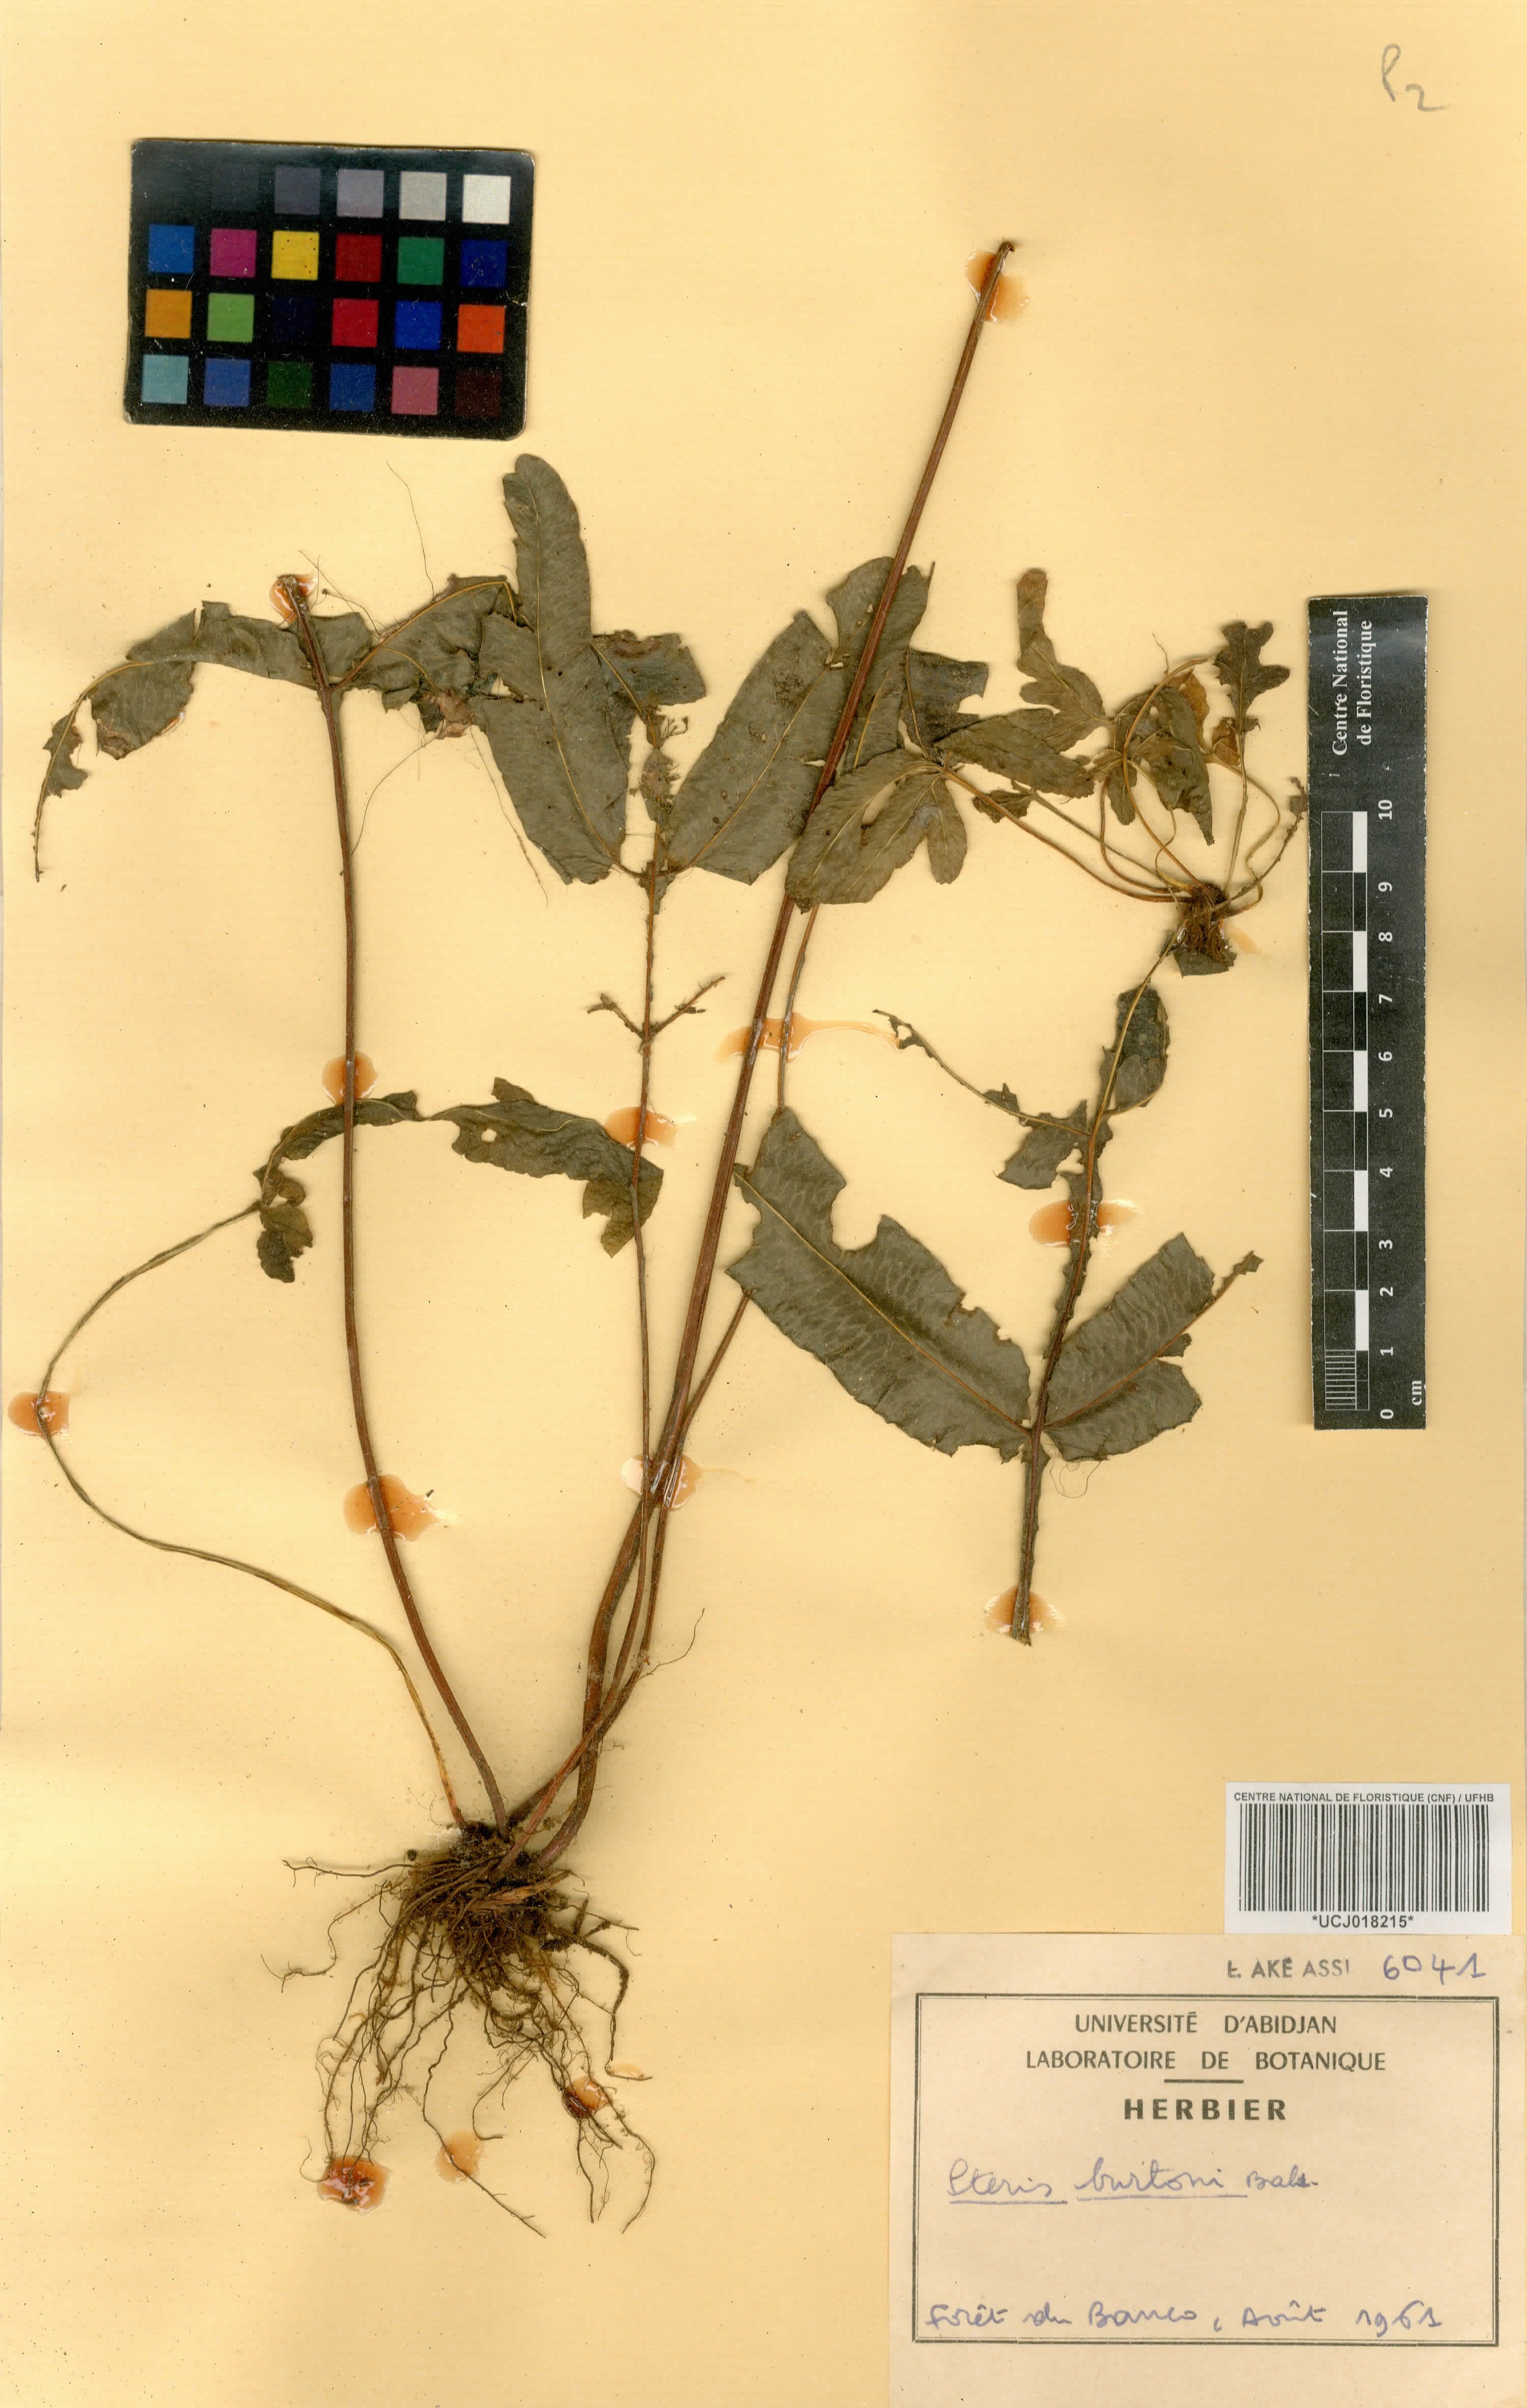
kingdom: Plantae
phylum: Tracheophyta
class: Polypodiopsida
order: Polypodiales
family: Pteridaceae
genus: Pteris
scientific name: Pteris burtonii
